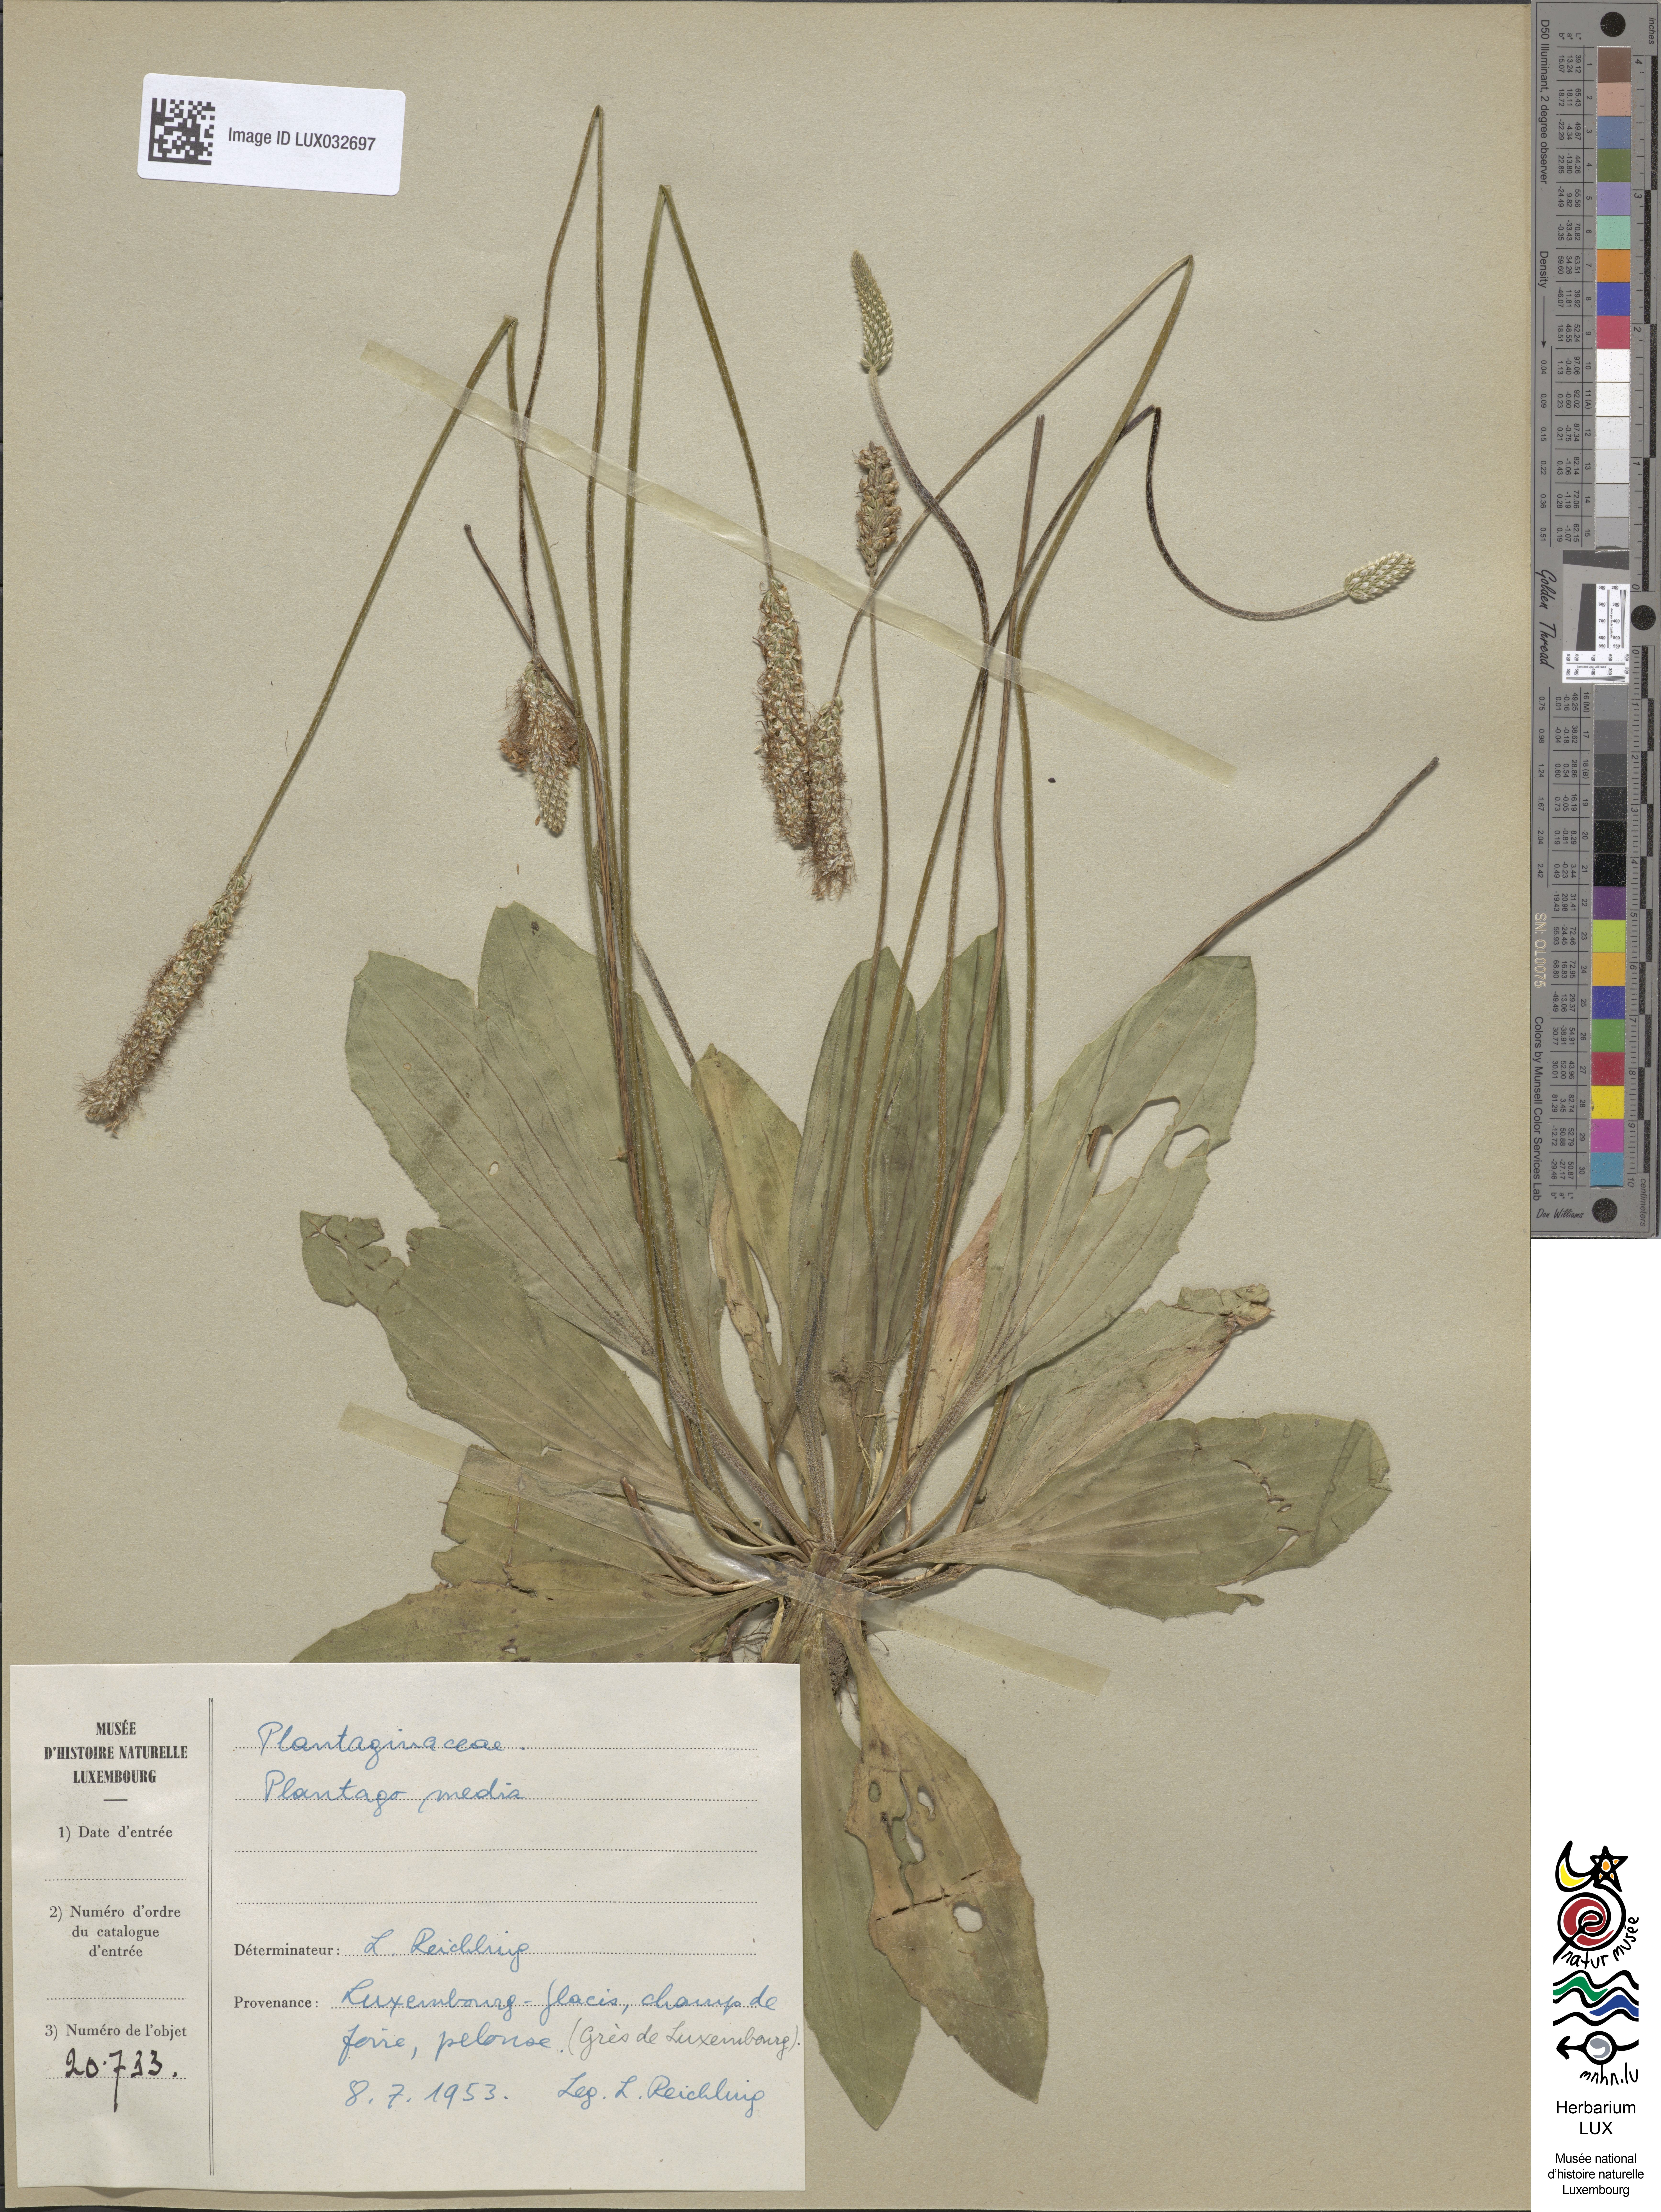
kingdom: Plantae
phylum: Tracheophyta
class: Magnoliopsida
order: Lamiales
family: Plantaginaceae
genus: Plantago
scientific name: Plantago media
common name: Hoary plantain
